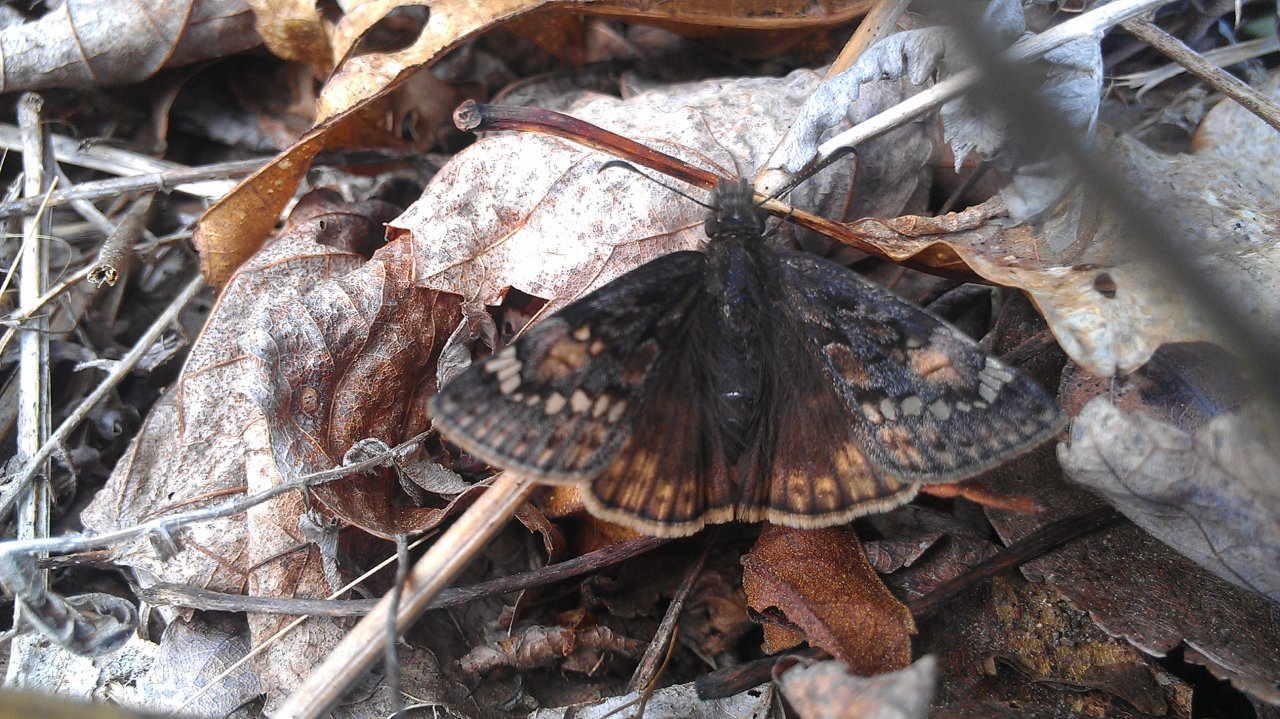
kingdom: Animalia
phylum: Arthropoda
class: Insecta
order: Lepidoptera
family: Hesperiidae
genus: Gesta
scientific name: Gesta
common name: Juvenal's Duskywing
